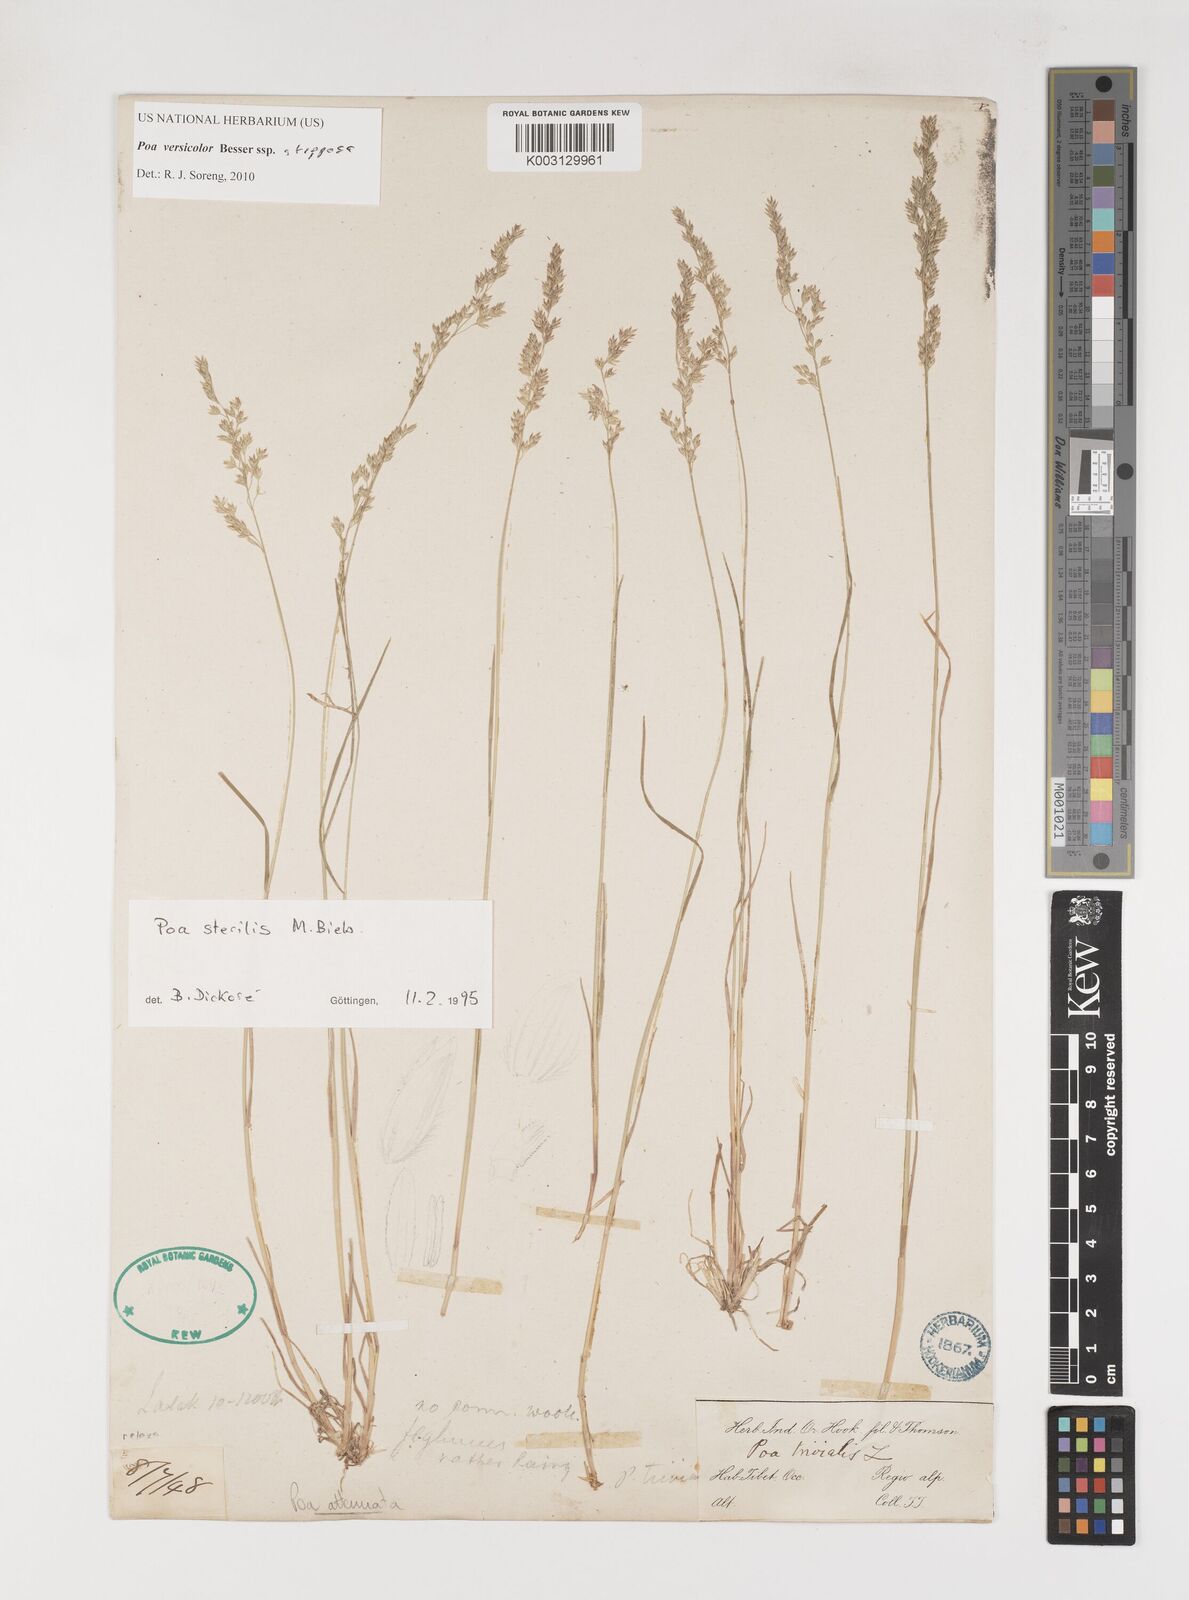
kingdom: Plantae
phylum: Tracheophyta
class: Liliopsida
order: Poales
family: Poaceae
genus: Poa
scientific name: Poa versicolor
